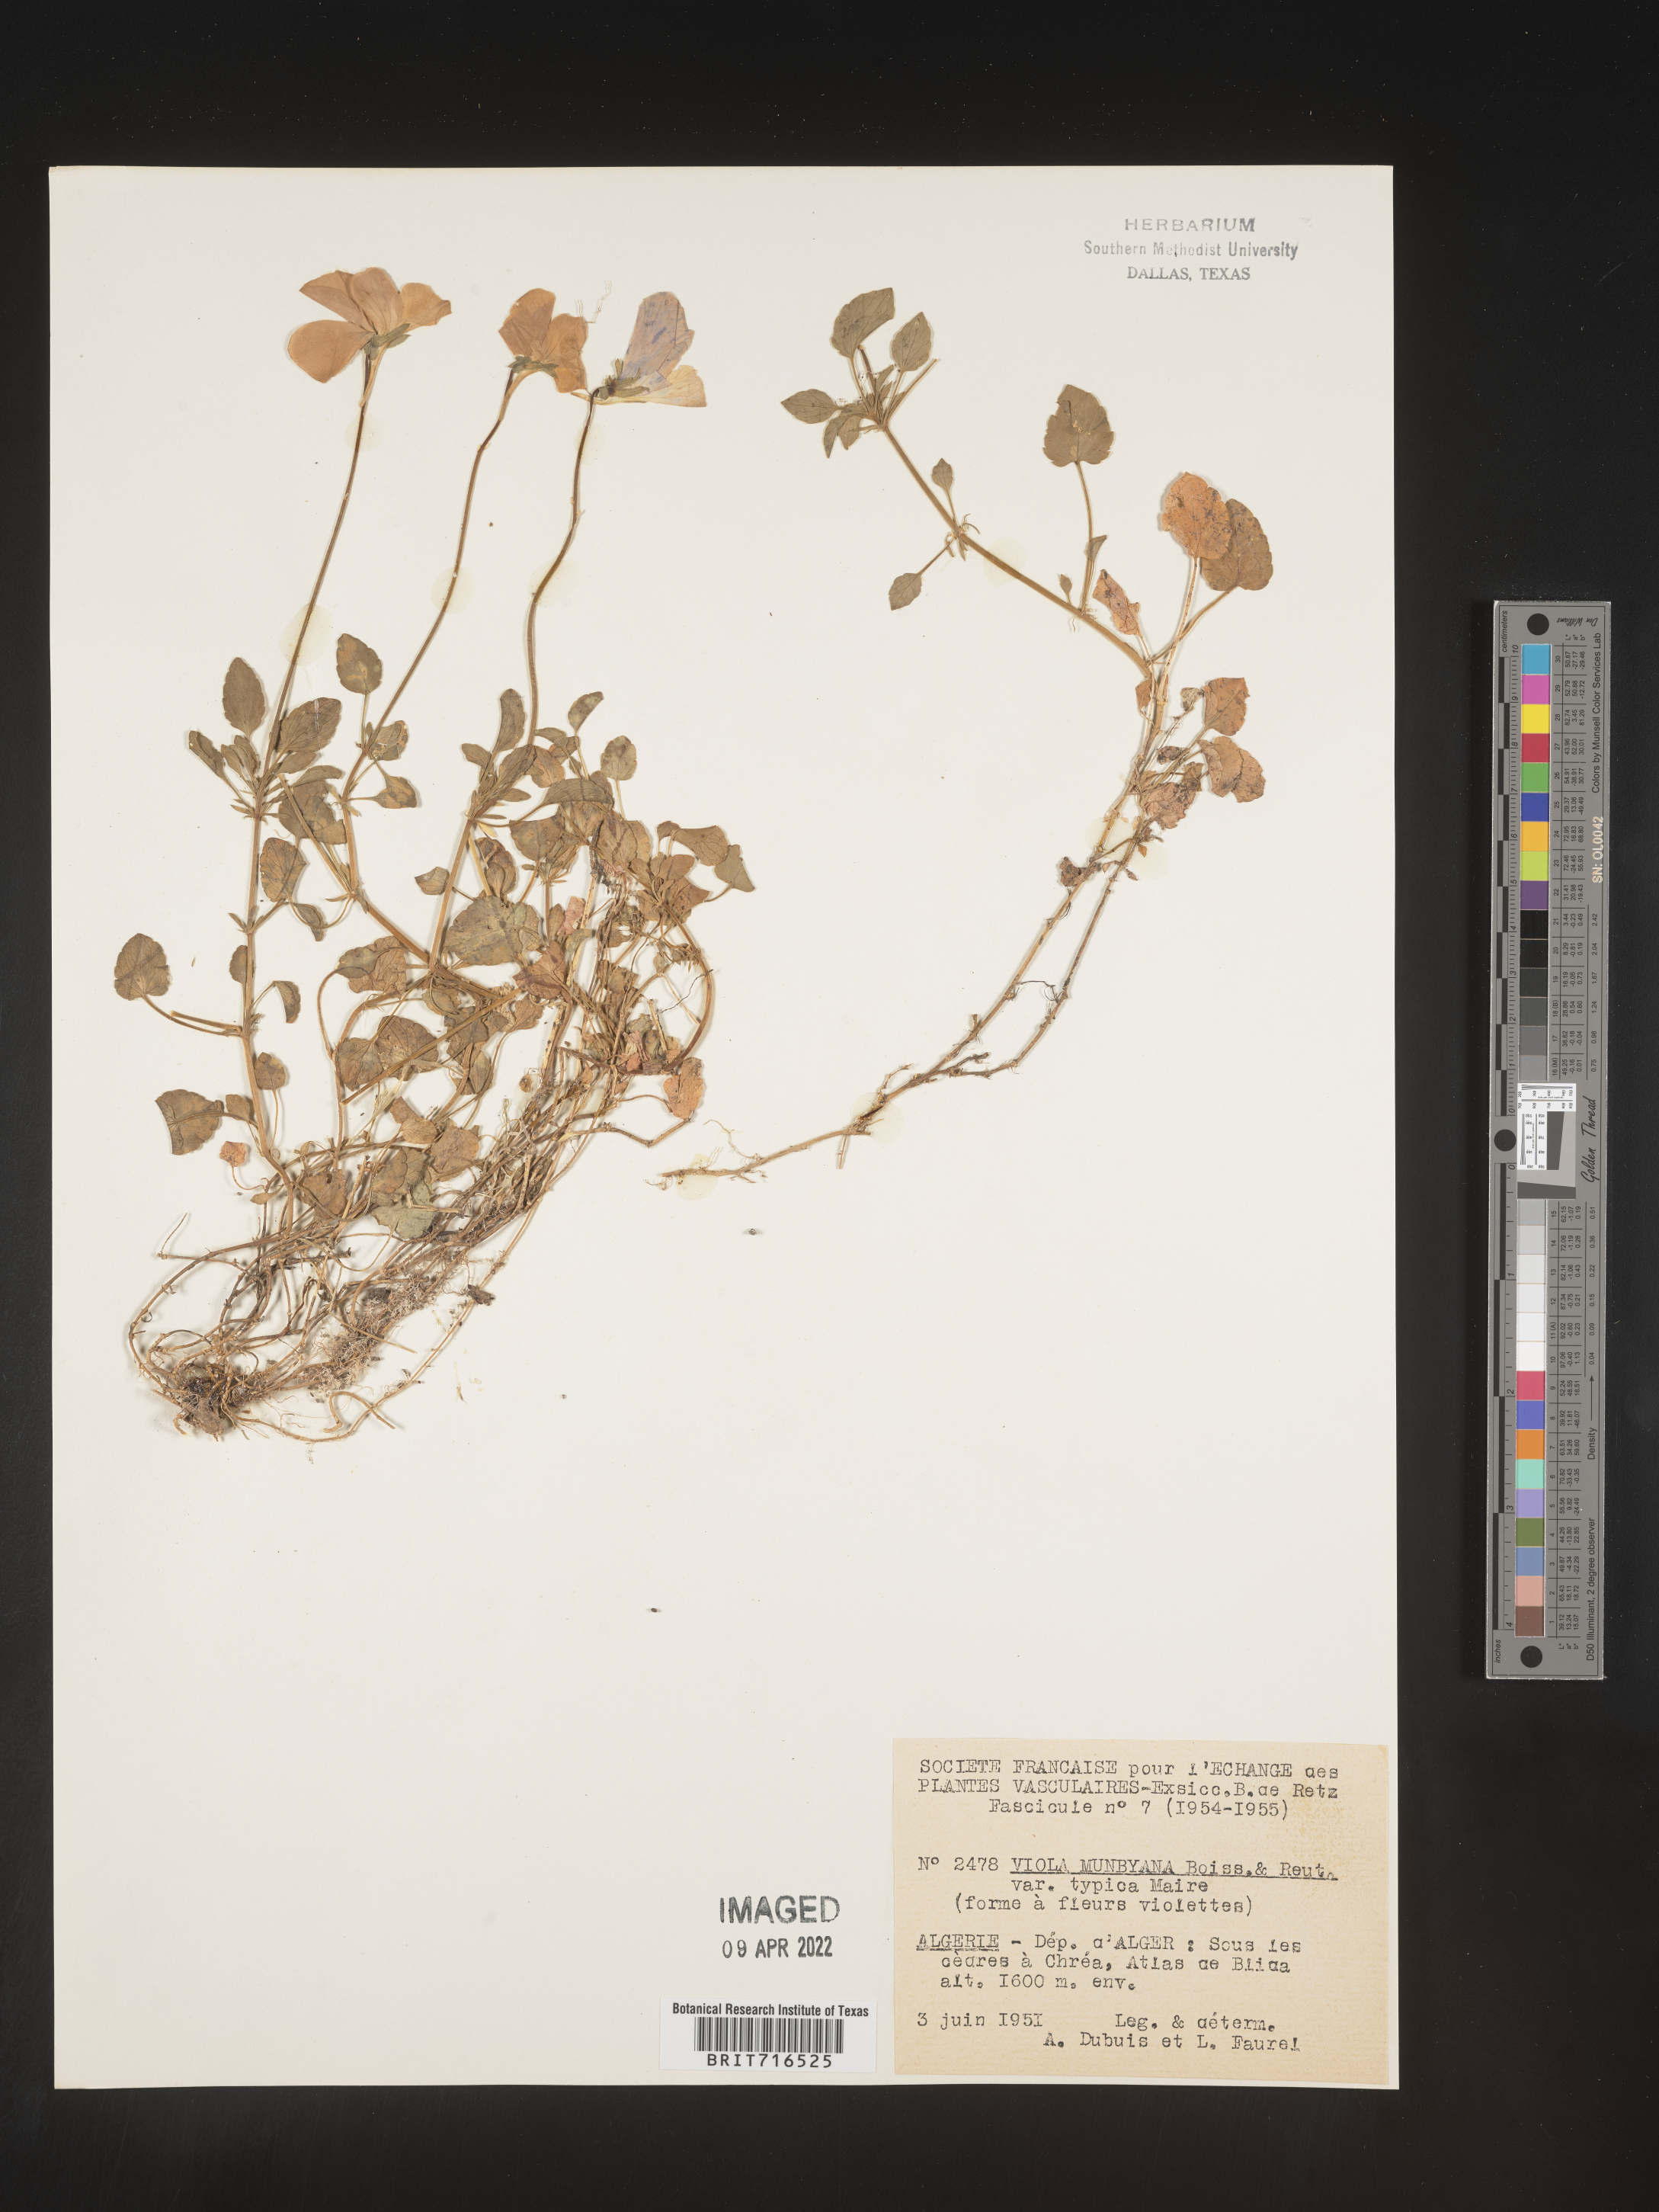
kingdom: Plantae
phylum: Tracheophyta
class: Magnoliopsida
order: Malpighiales
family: Violaceae
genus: Viola
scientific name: Viola
